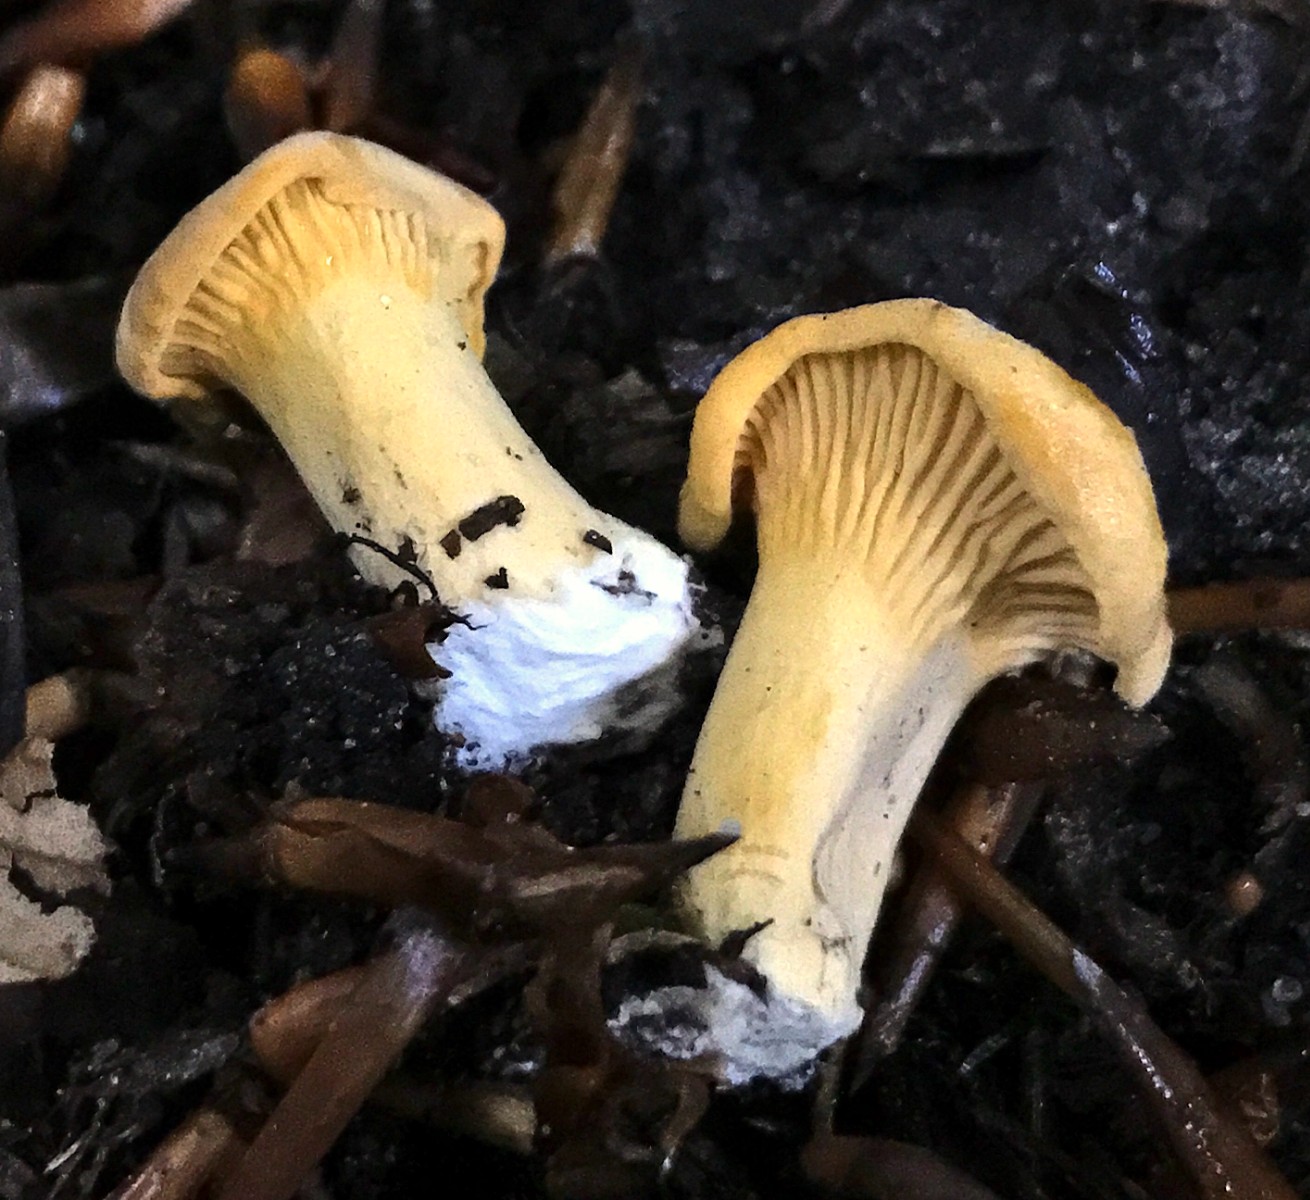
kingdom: Fungi
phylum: Basidiomycota
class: Agaricomycetes
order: Cantharellales
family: Hydnaceae
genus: Cantharellus
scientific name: Cantharellus pallens
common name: bleg kantarel
